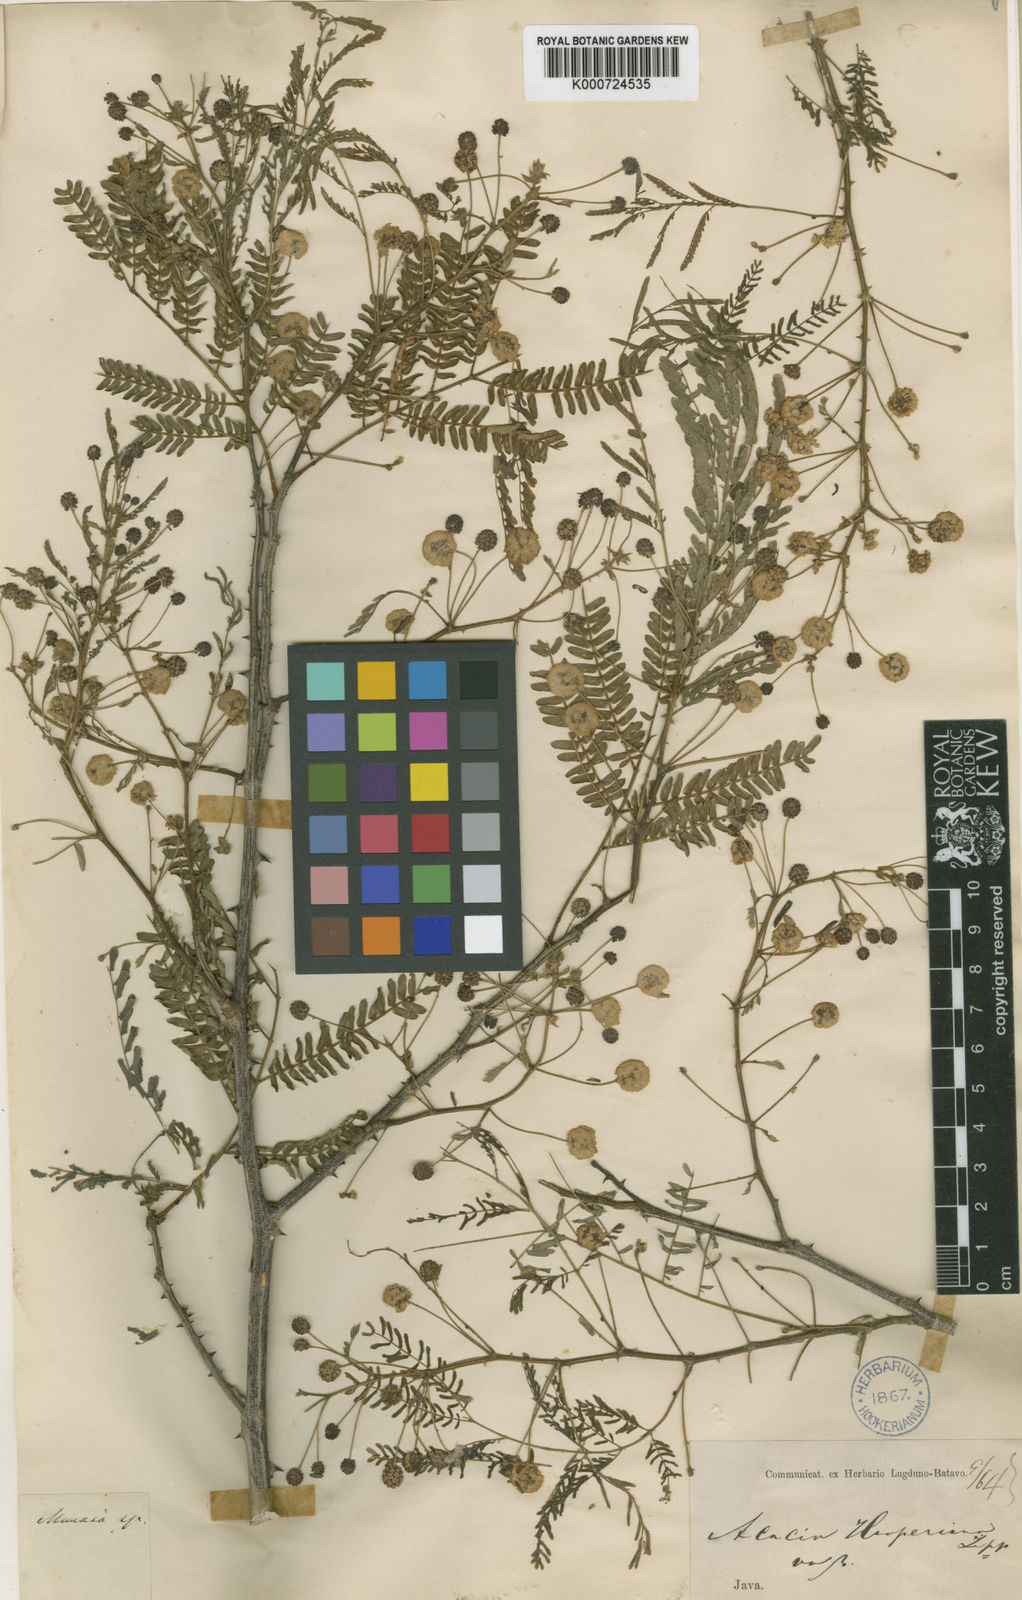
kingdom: Plantae
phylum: Tracheophyta
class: Magnoliopsida
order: Fabales
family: Fabaceae
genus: Senegalia
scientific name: Senegalia rugata
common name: Soap-pod
